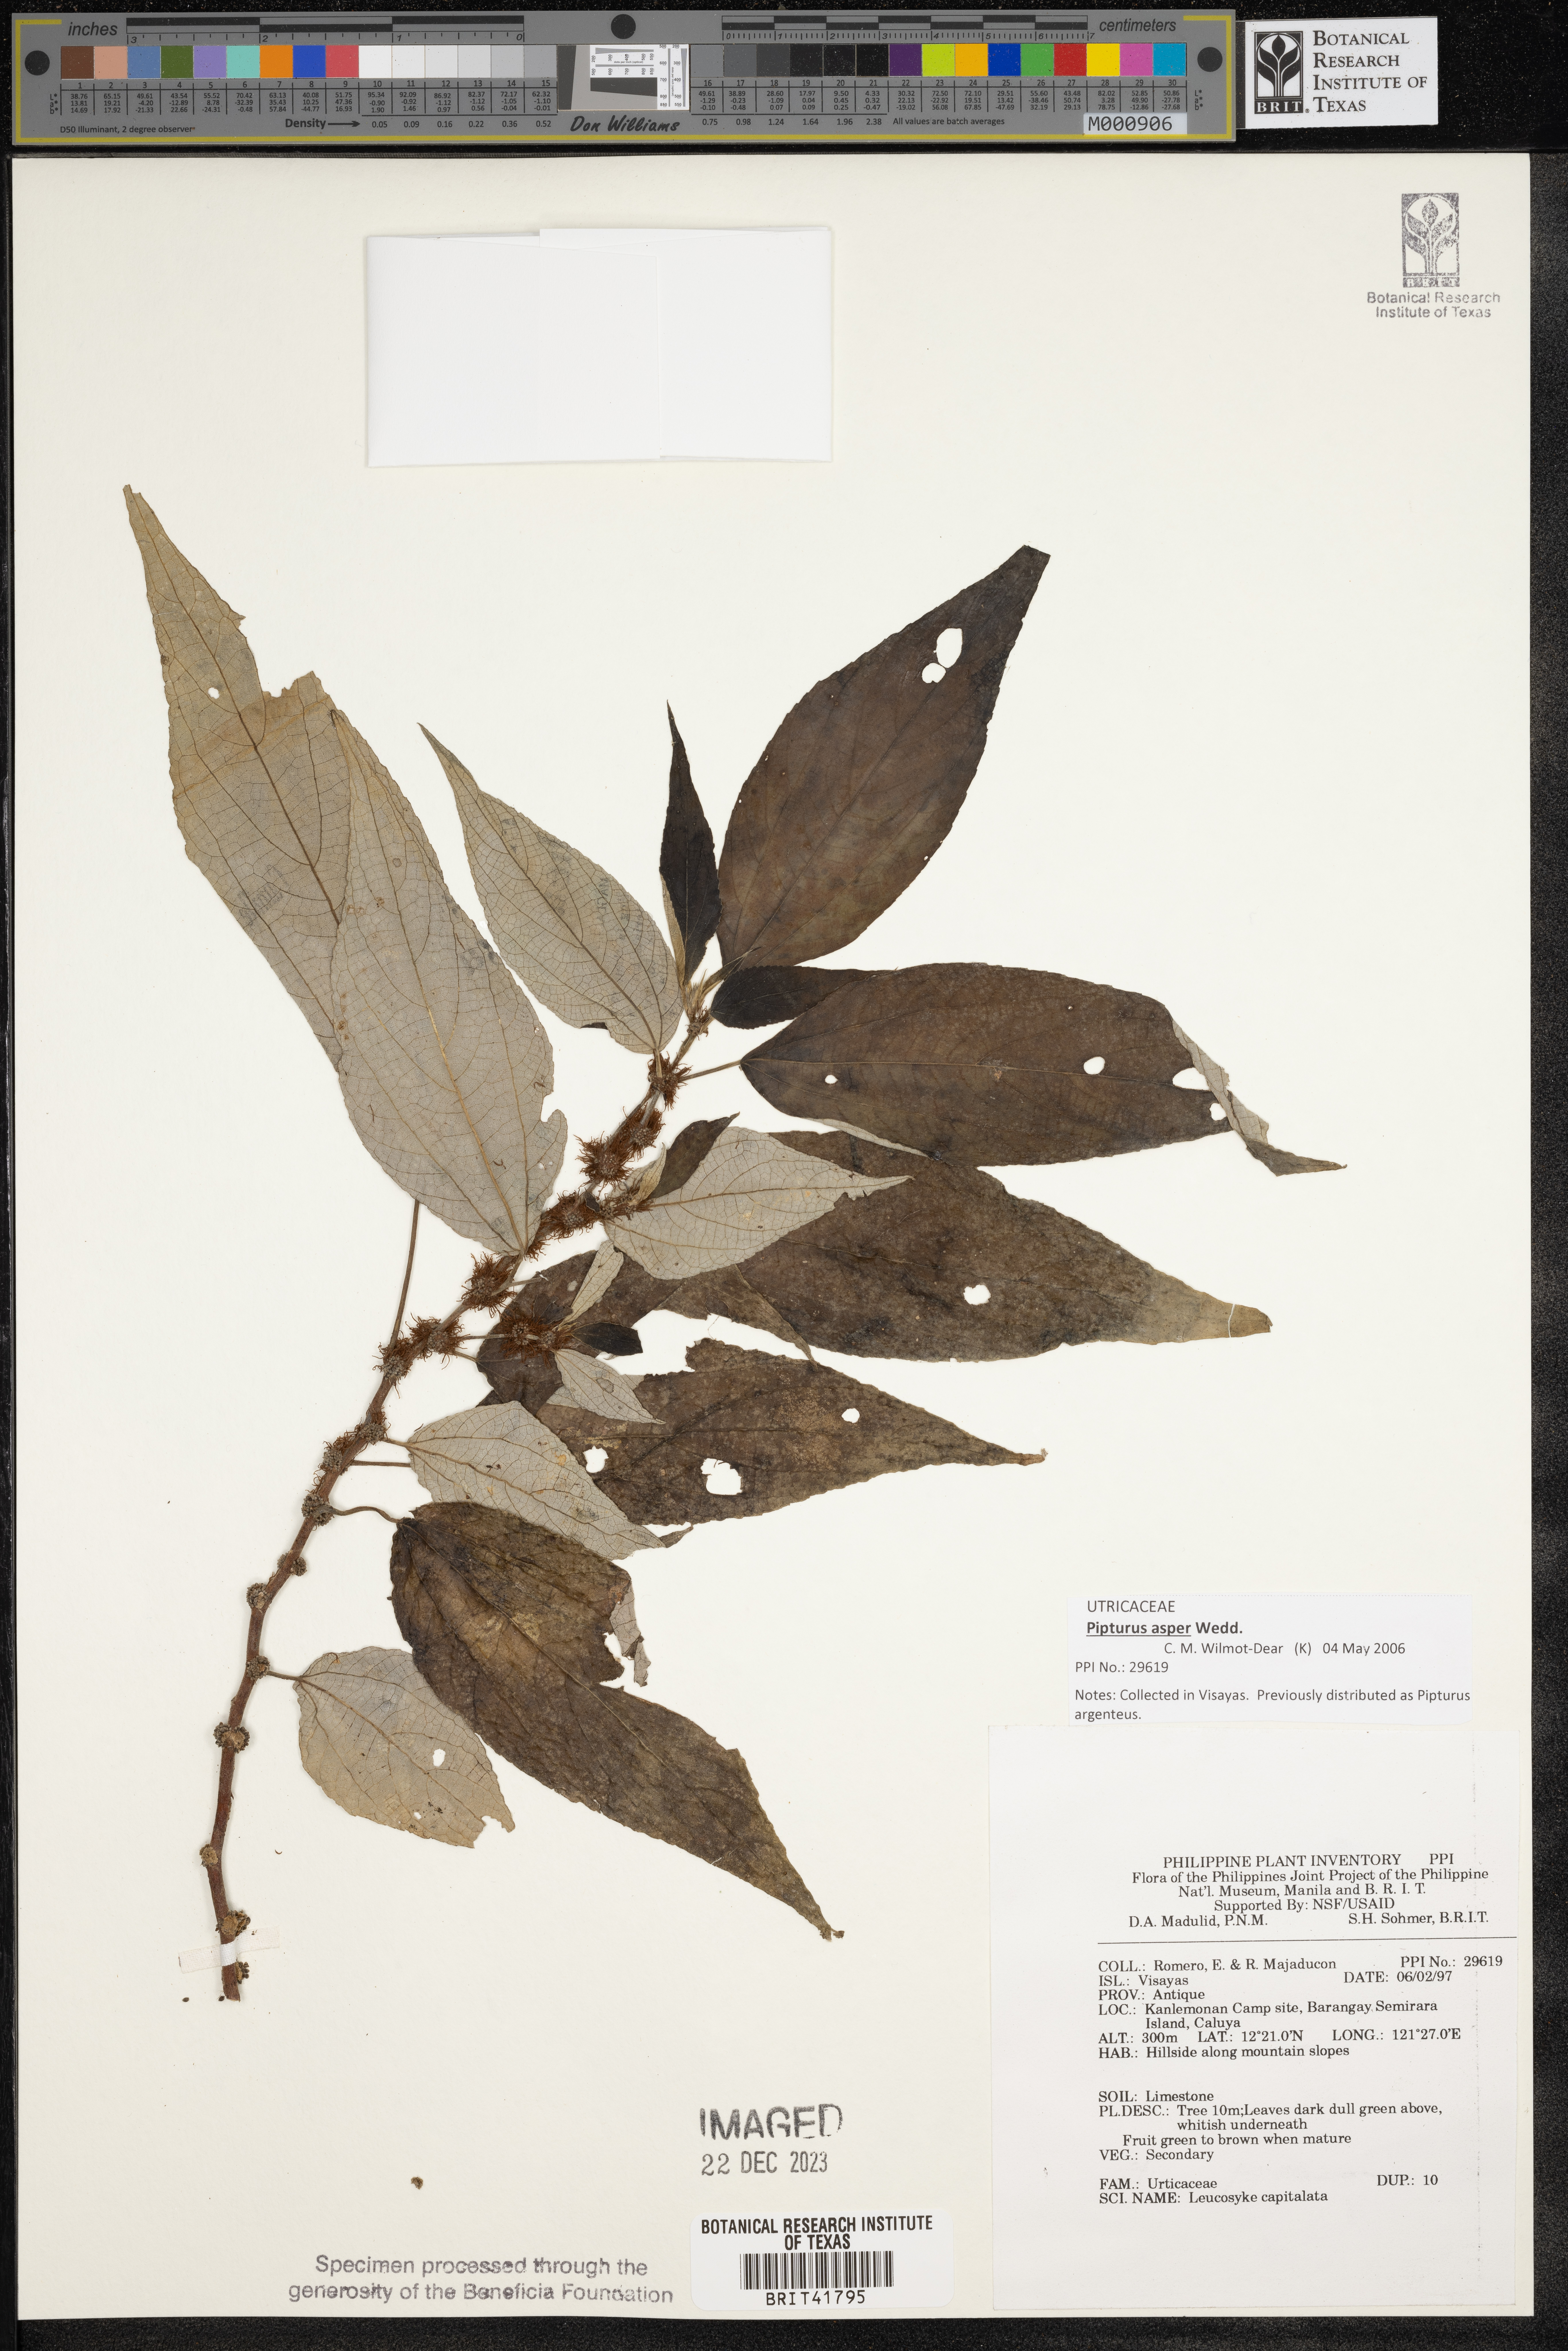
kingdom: Plantae
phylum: Tracheophyta
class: Magnoliopsida
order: Rosales
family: Urticaceae
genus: Leucosyke
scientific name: Leucosyke capitellata
